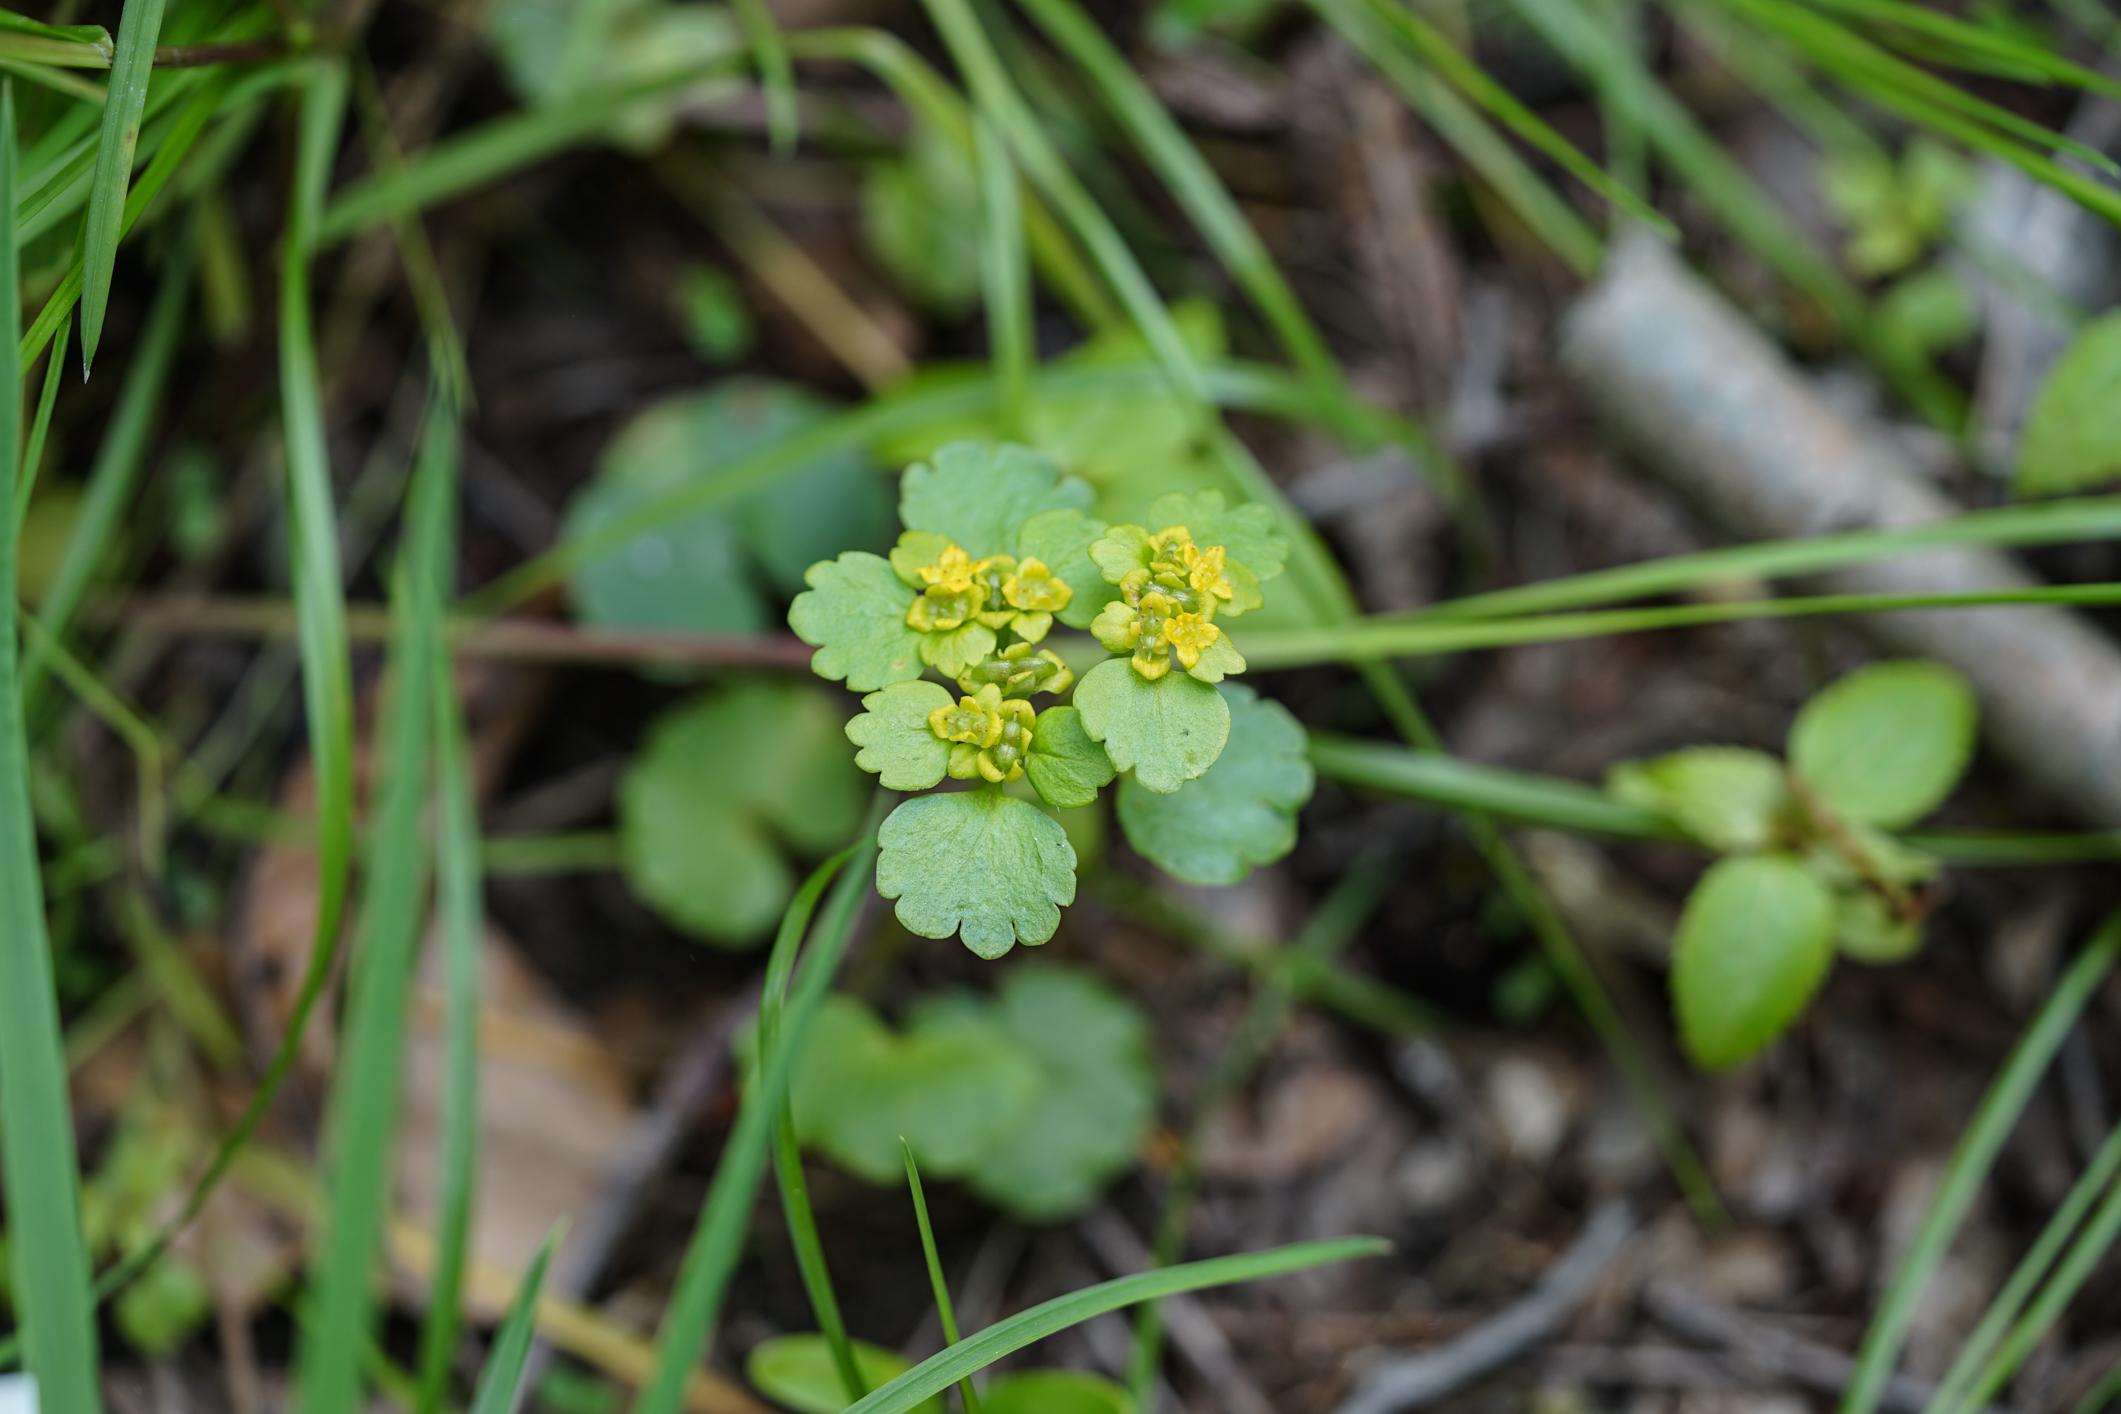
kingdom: Plantae
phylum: Tracheophyta
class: Magnoliopsida
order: Saxifragales
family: Saxifragaceae
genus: Chrysosplenium
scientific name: Chrysosplenium alternifolium
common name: Alternate-leaved golden-saxifrage
